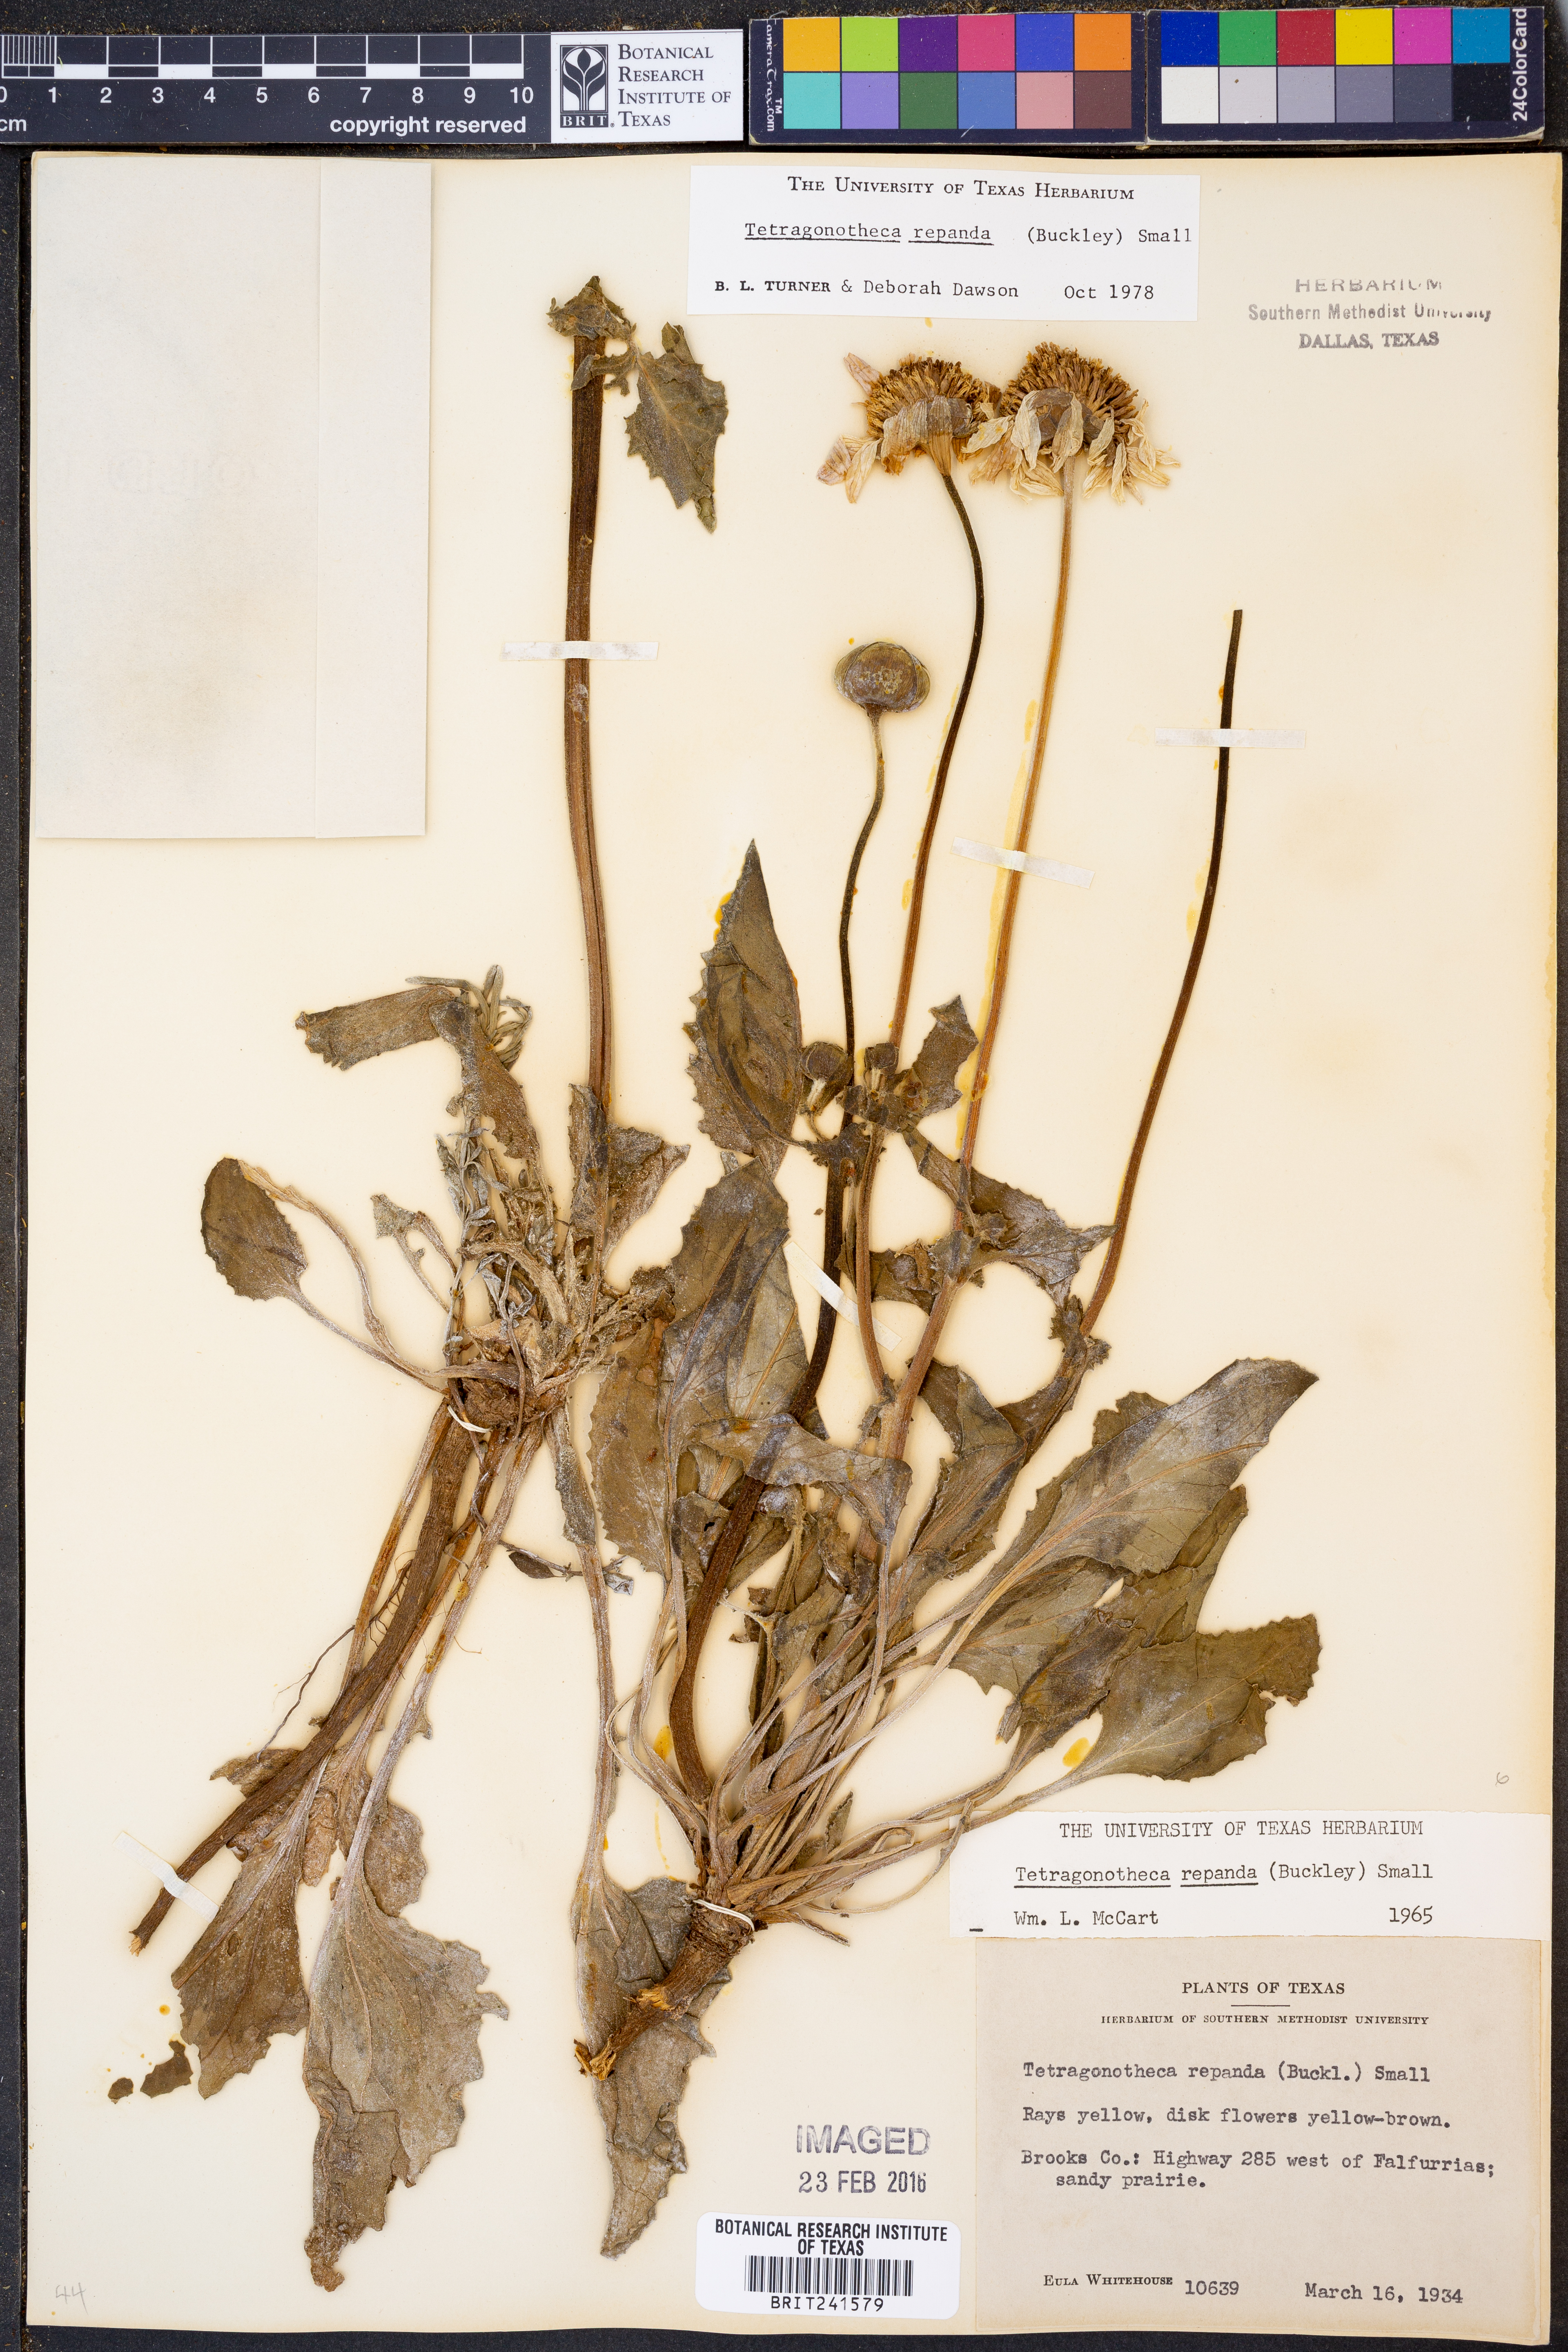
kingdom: Plantae
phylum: Tracheophyta
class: Magnoliopsida
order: Asterales
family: Asteraceae
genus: Tetragonotheca
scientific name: Tetragonotheca repanda
